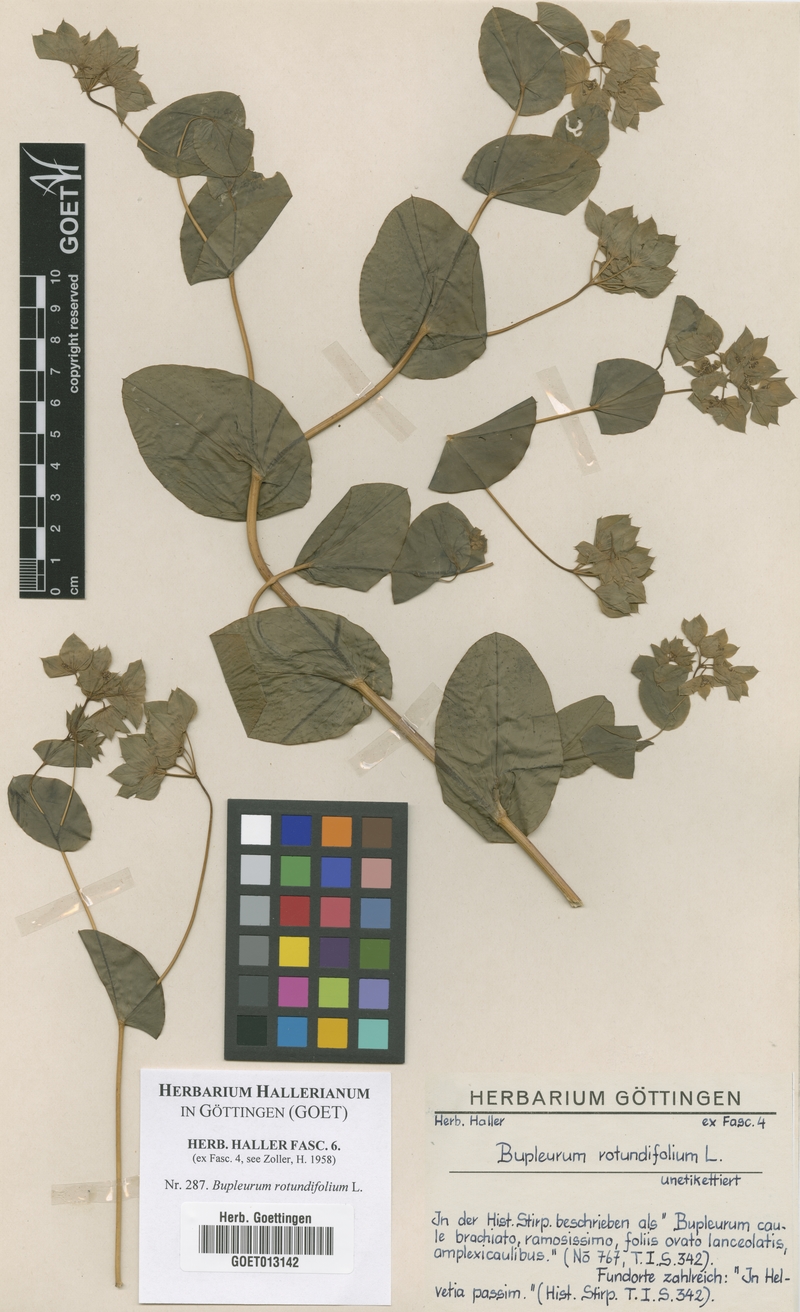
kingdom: Plantae
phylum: Tracheophyta
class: Magnoliopsida
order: Apiales
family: Apiaceae
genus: Bupleurum
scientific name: Bupleurum rotundifolium
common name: Thorow-wax
